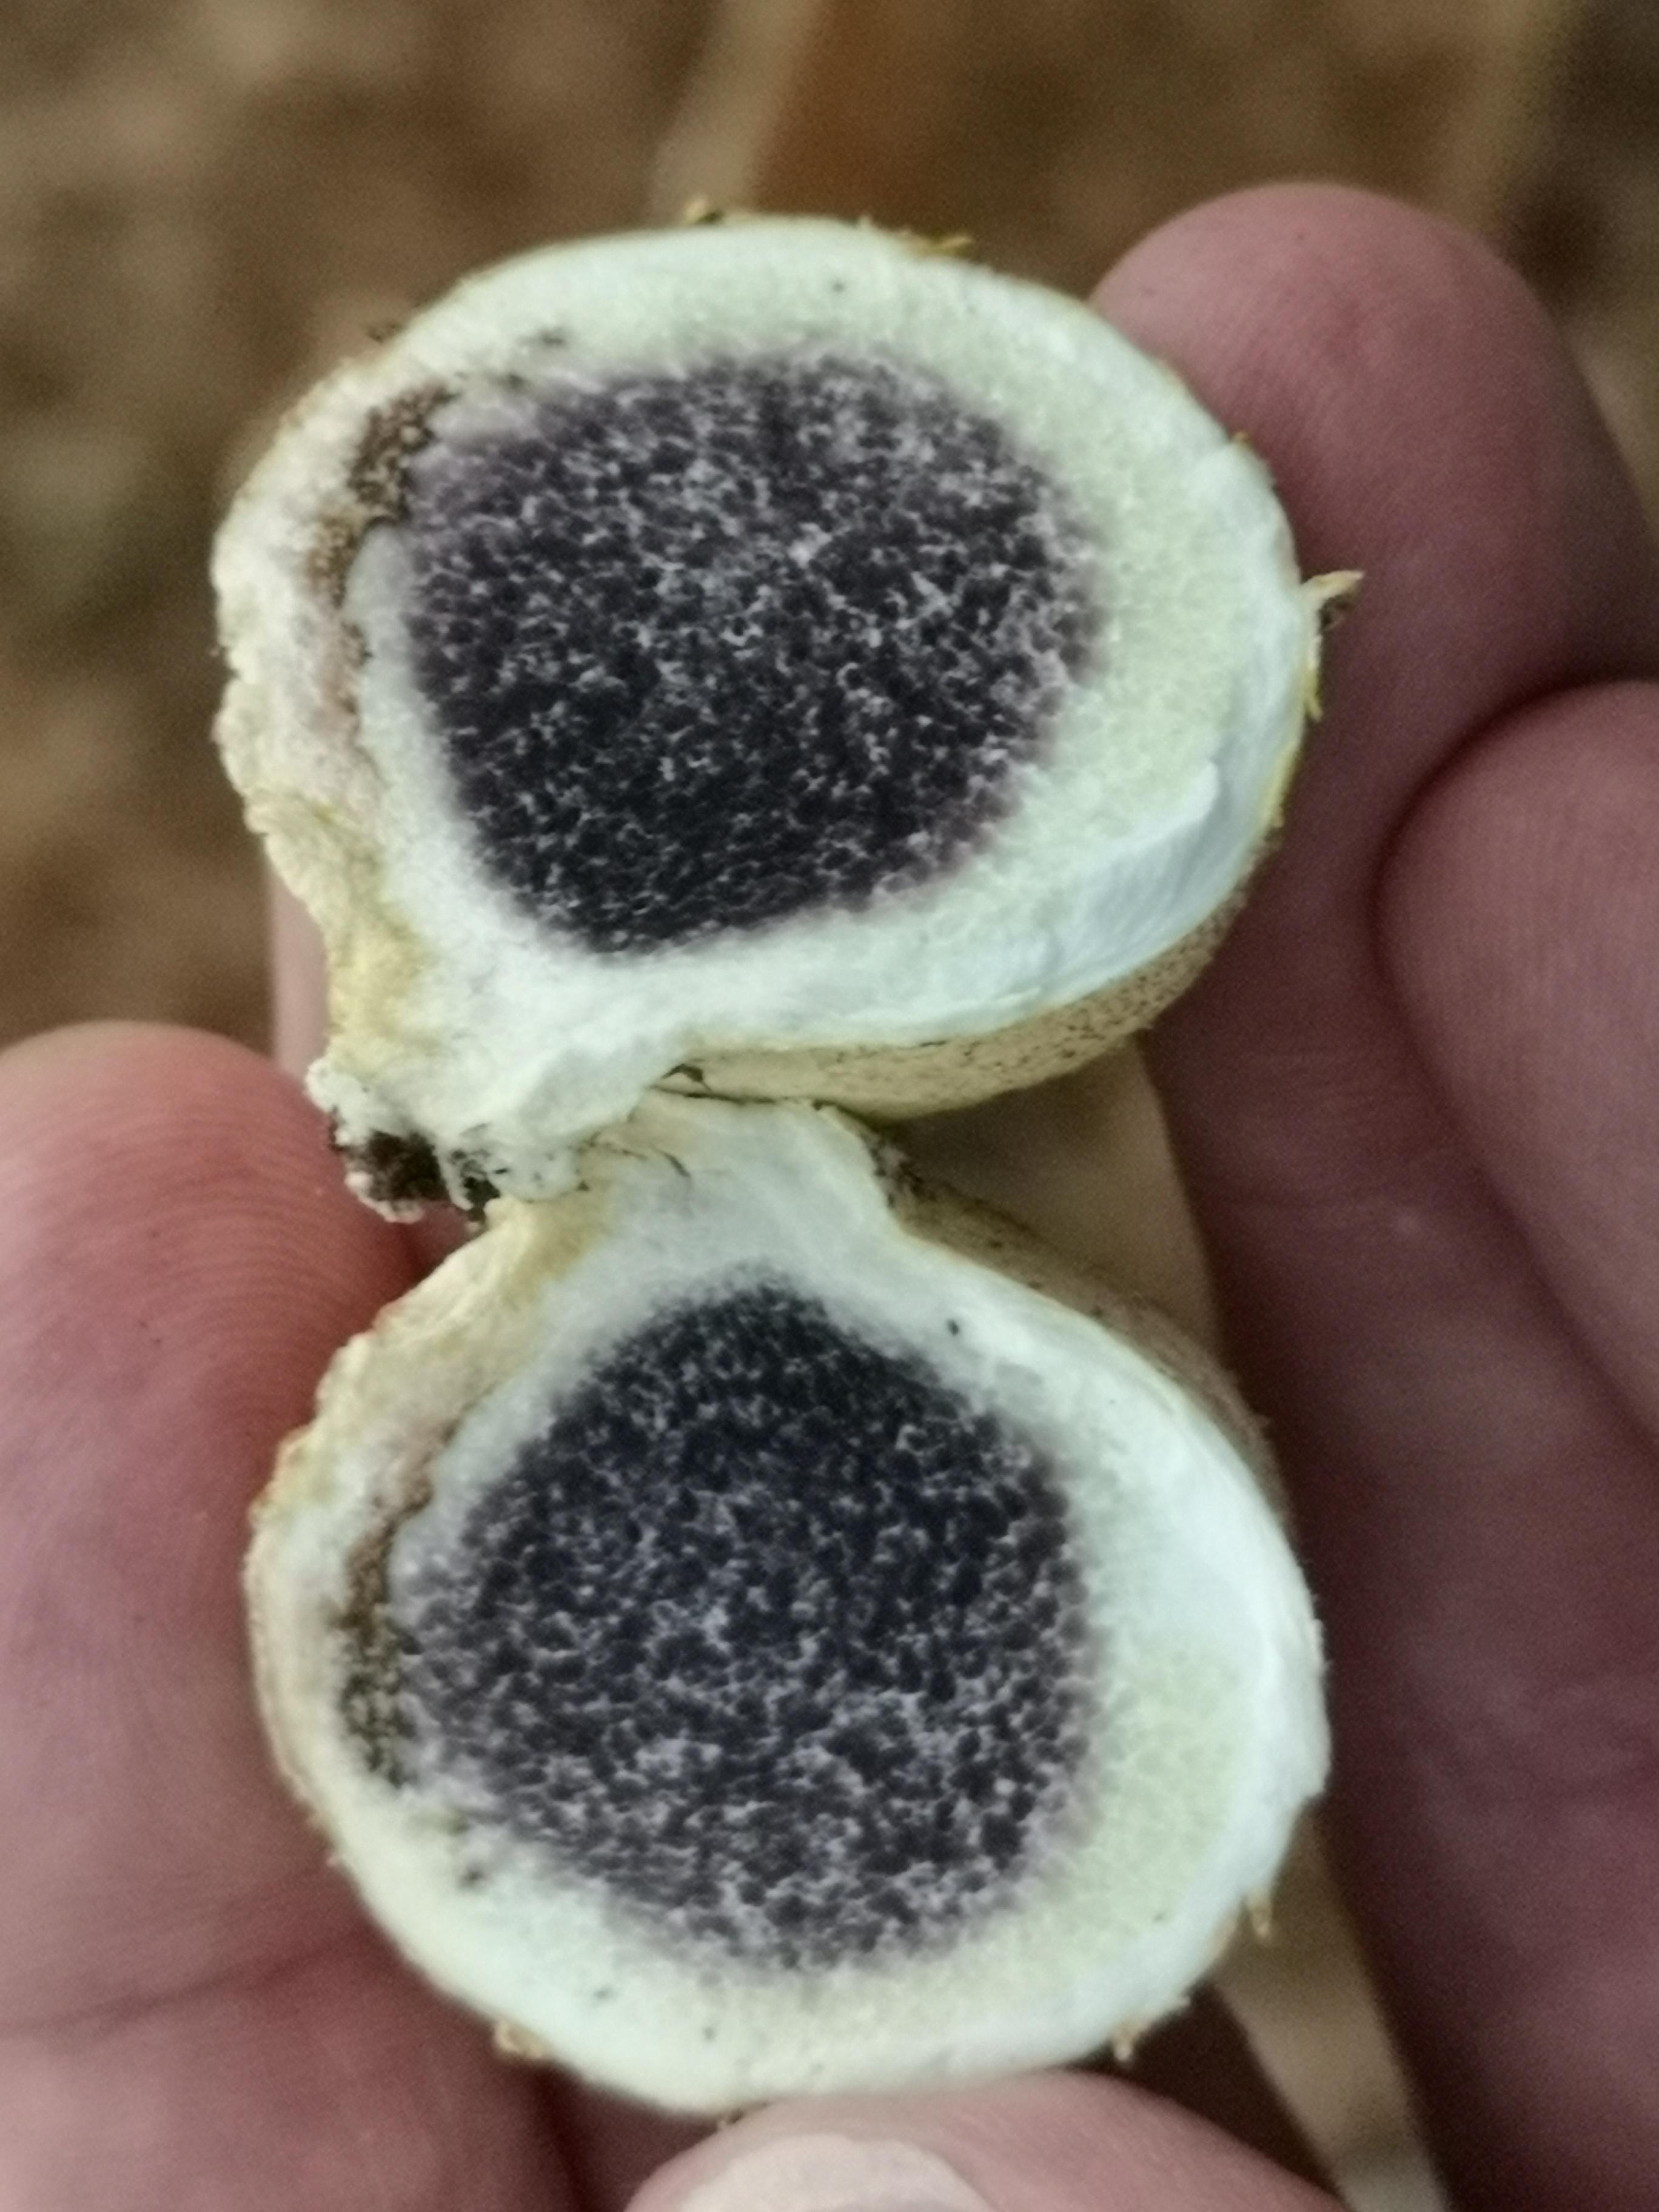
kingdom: Fungi
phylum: Basidiomycota
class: Agaricomycetes
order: Boletales
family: Sclerodermataceae
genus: Scleroderma
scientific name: Scleroderma citrinum
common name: almindelig bruskbold
